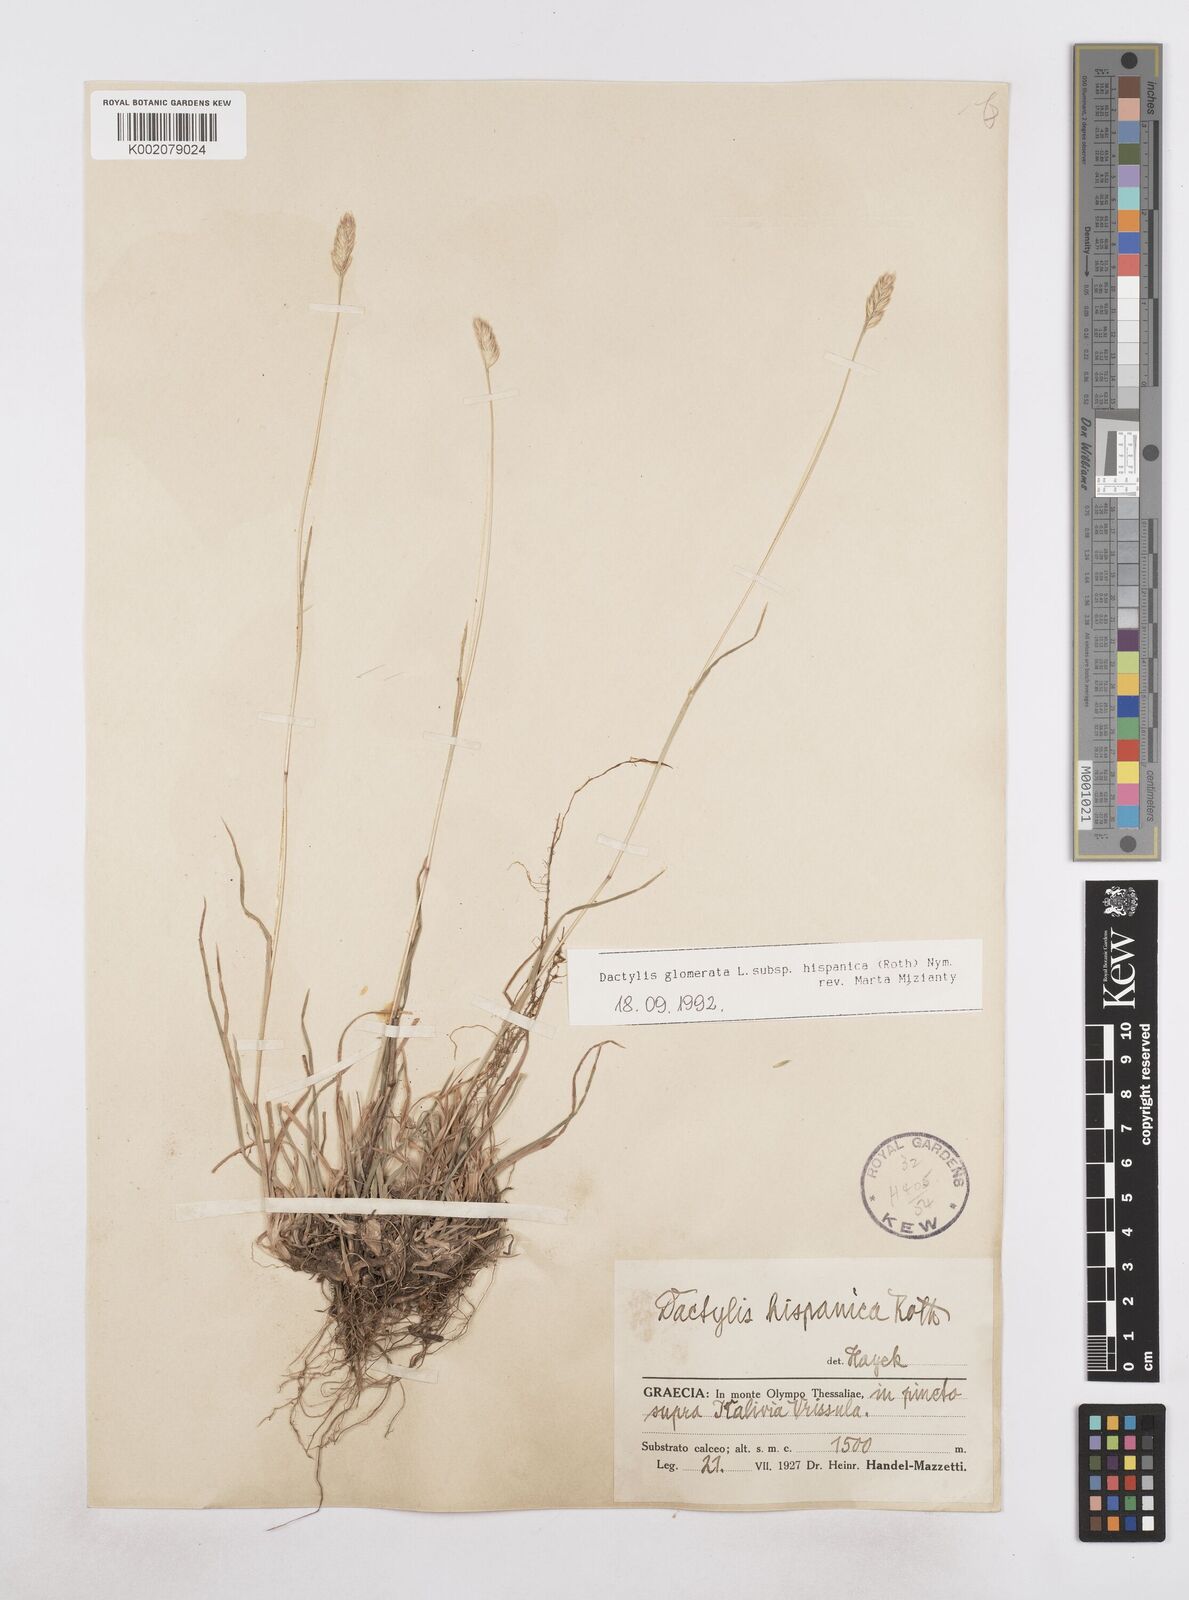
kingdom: Plantae
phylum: Tracheophyta
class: Liliopsida
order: Poales
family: Poaceae
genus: Dactylis
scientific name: Dactylis glomerata
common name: Orchardgrass
